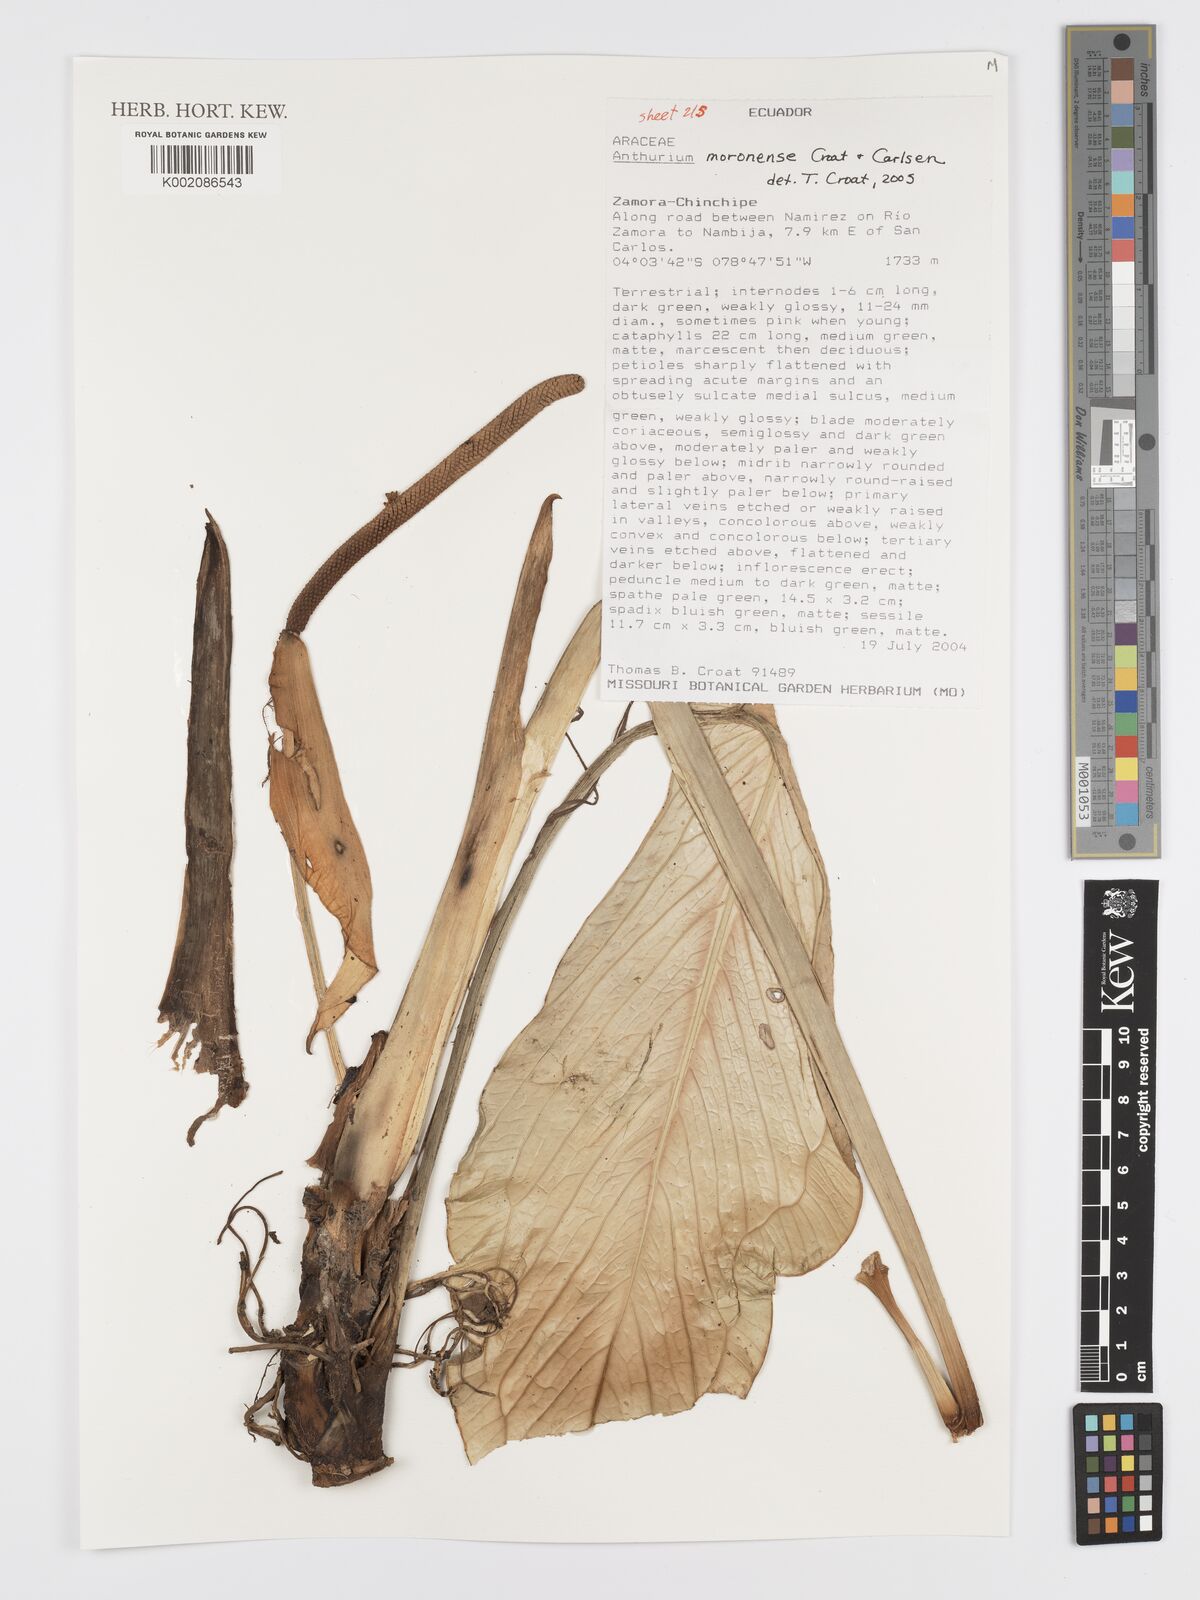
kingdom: Plantae
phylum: Tracheophyta
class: Liliopsida
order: Alismatales
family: Araceae
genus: Anthurium
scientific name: Anthurium moronense
